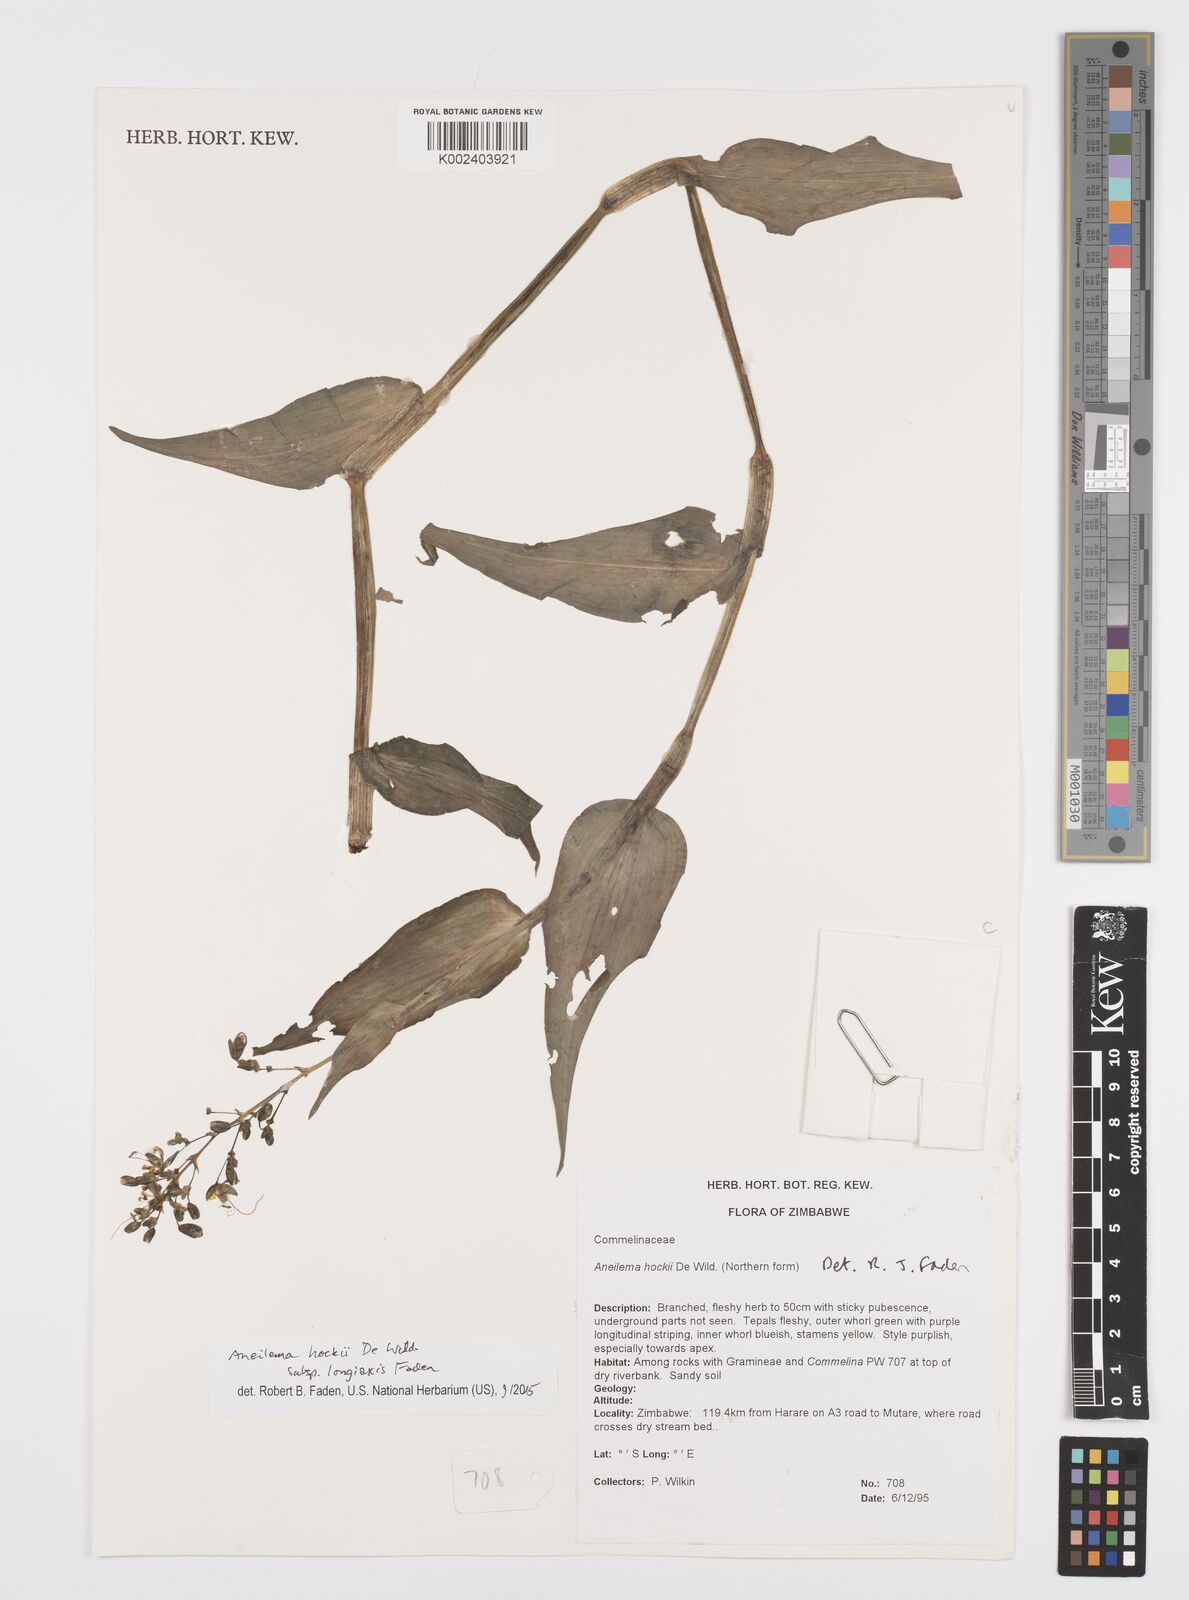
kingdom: Plantae
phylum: Tracheophyta
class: Liliopsida
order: Commelinales
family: Commelinaceae
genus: Aneilema
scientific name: Aneilema hockii
